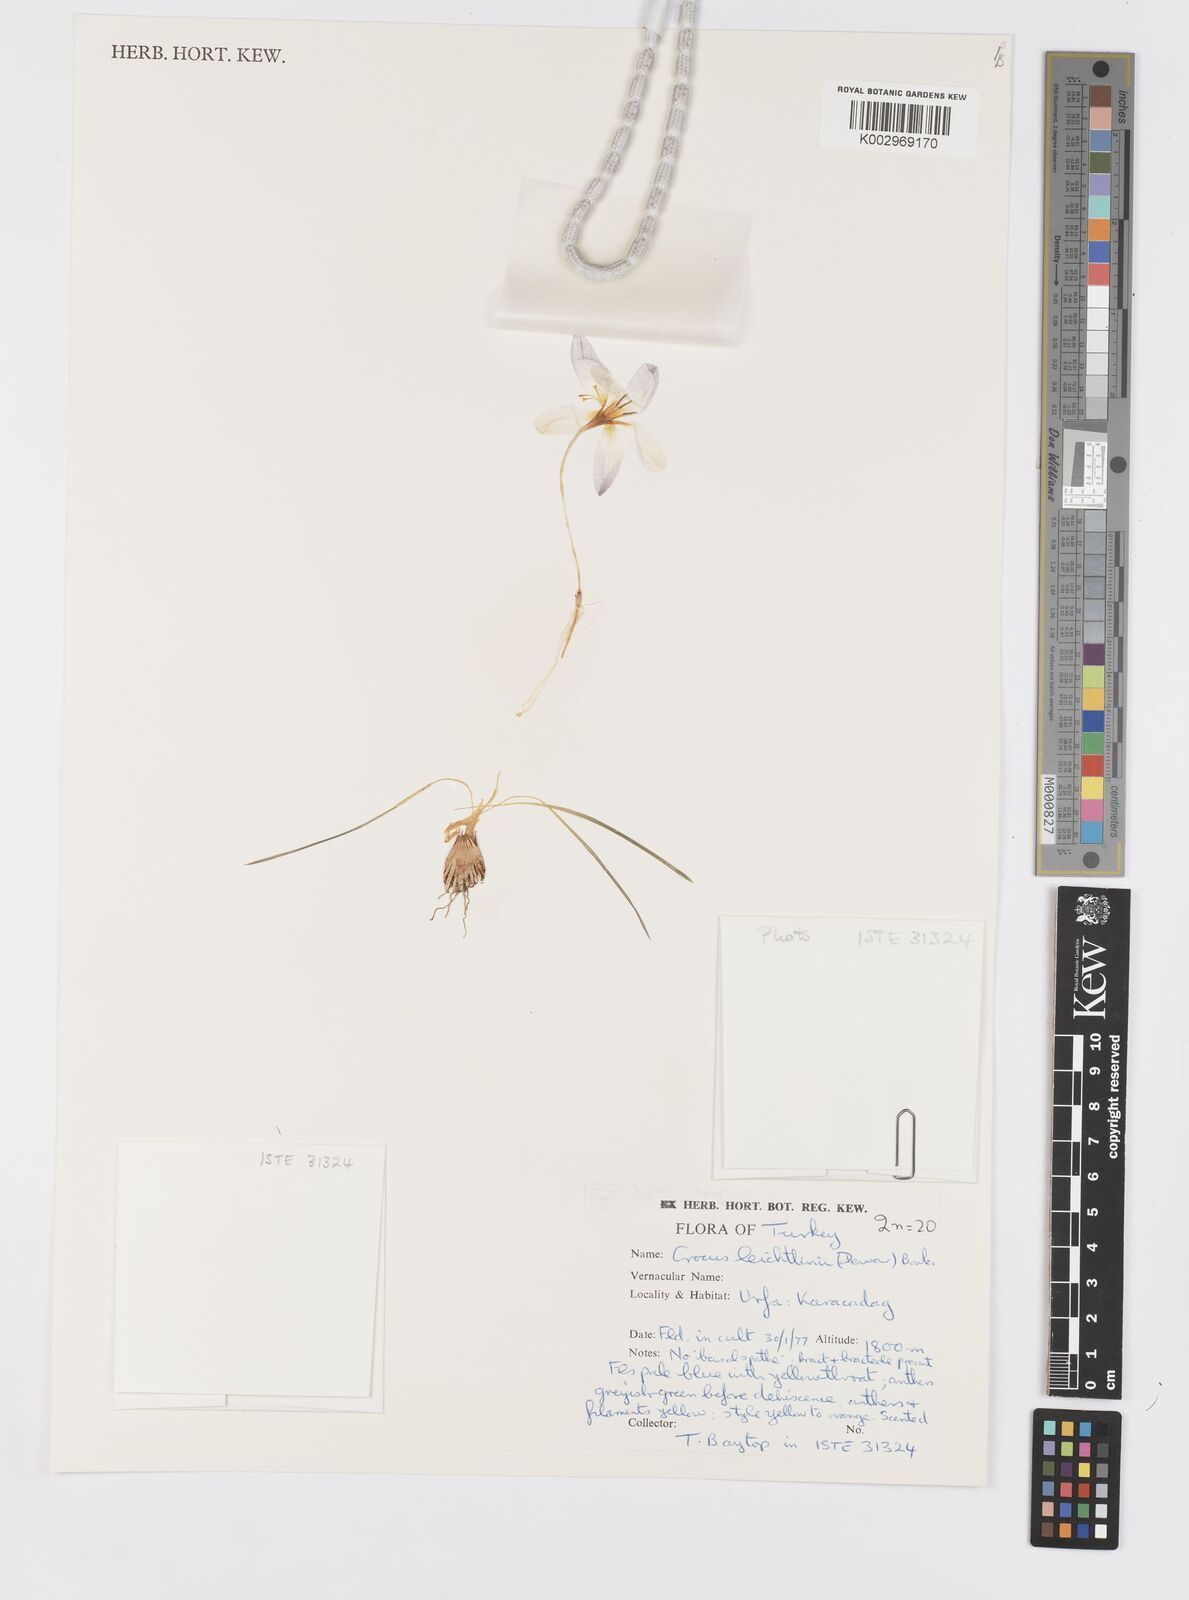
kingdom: Plantae
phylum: Tracheophyta
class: Liliopsida
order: Asparagales
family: Iridaceae
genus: Crocus
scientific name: Crocus leichtlinii
